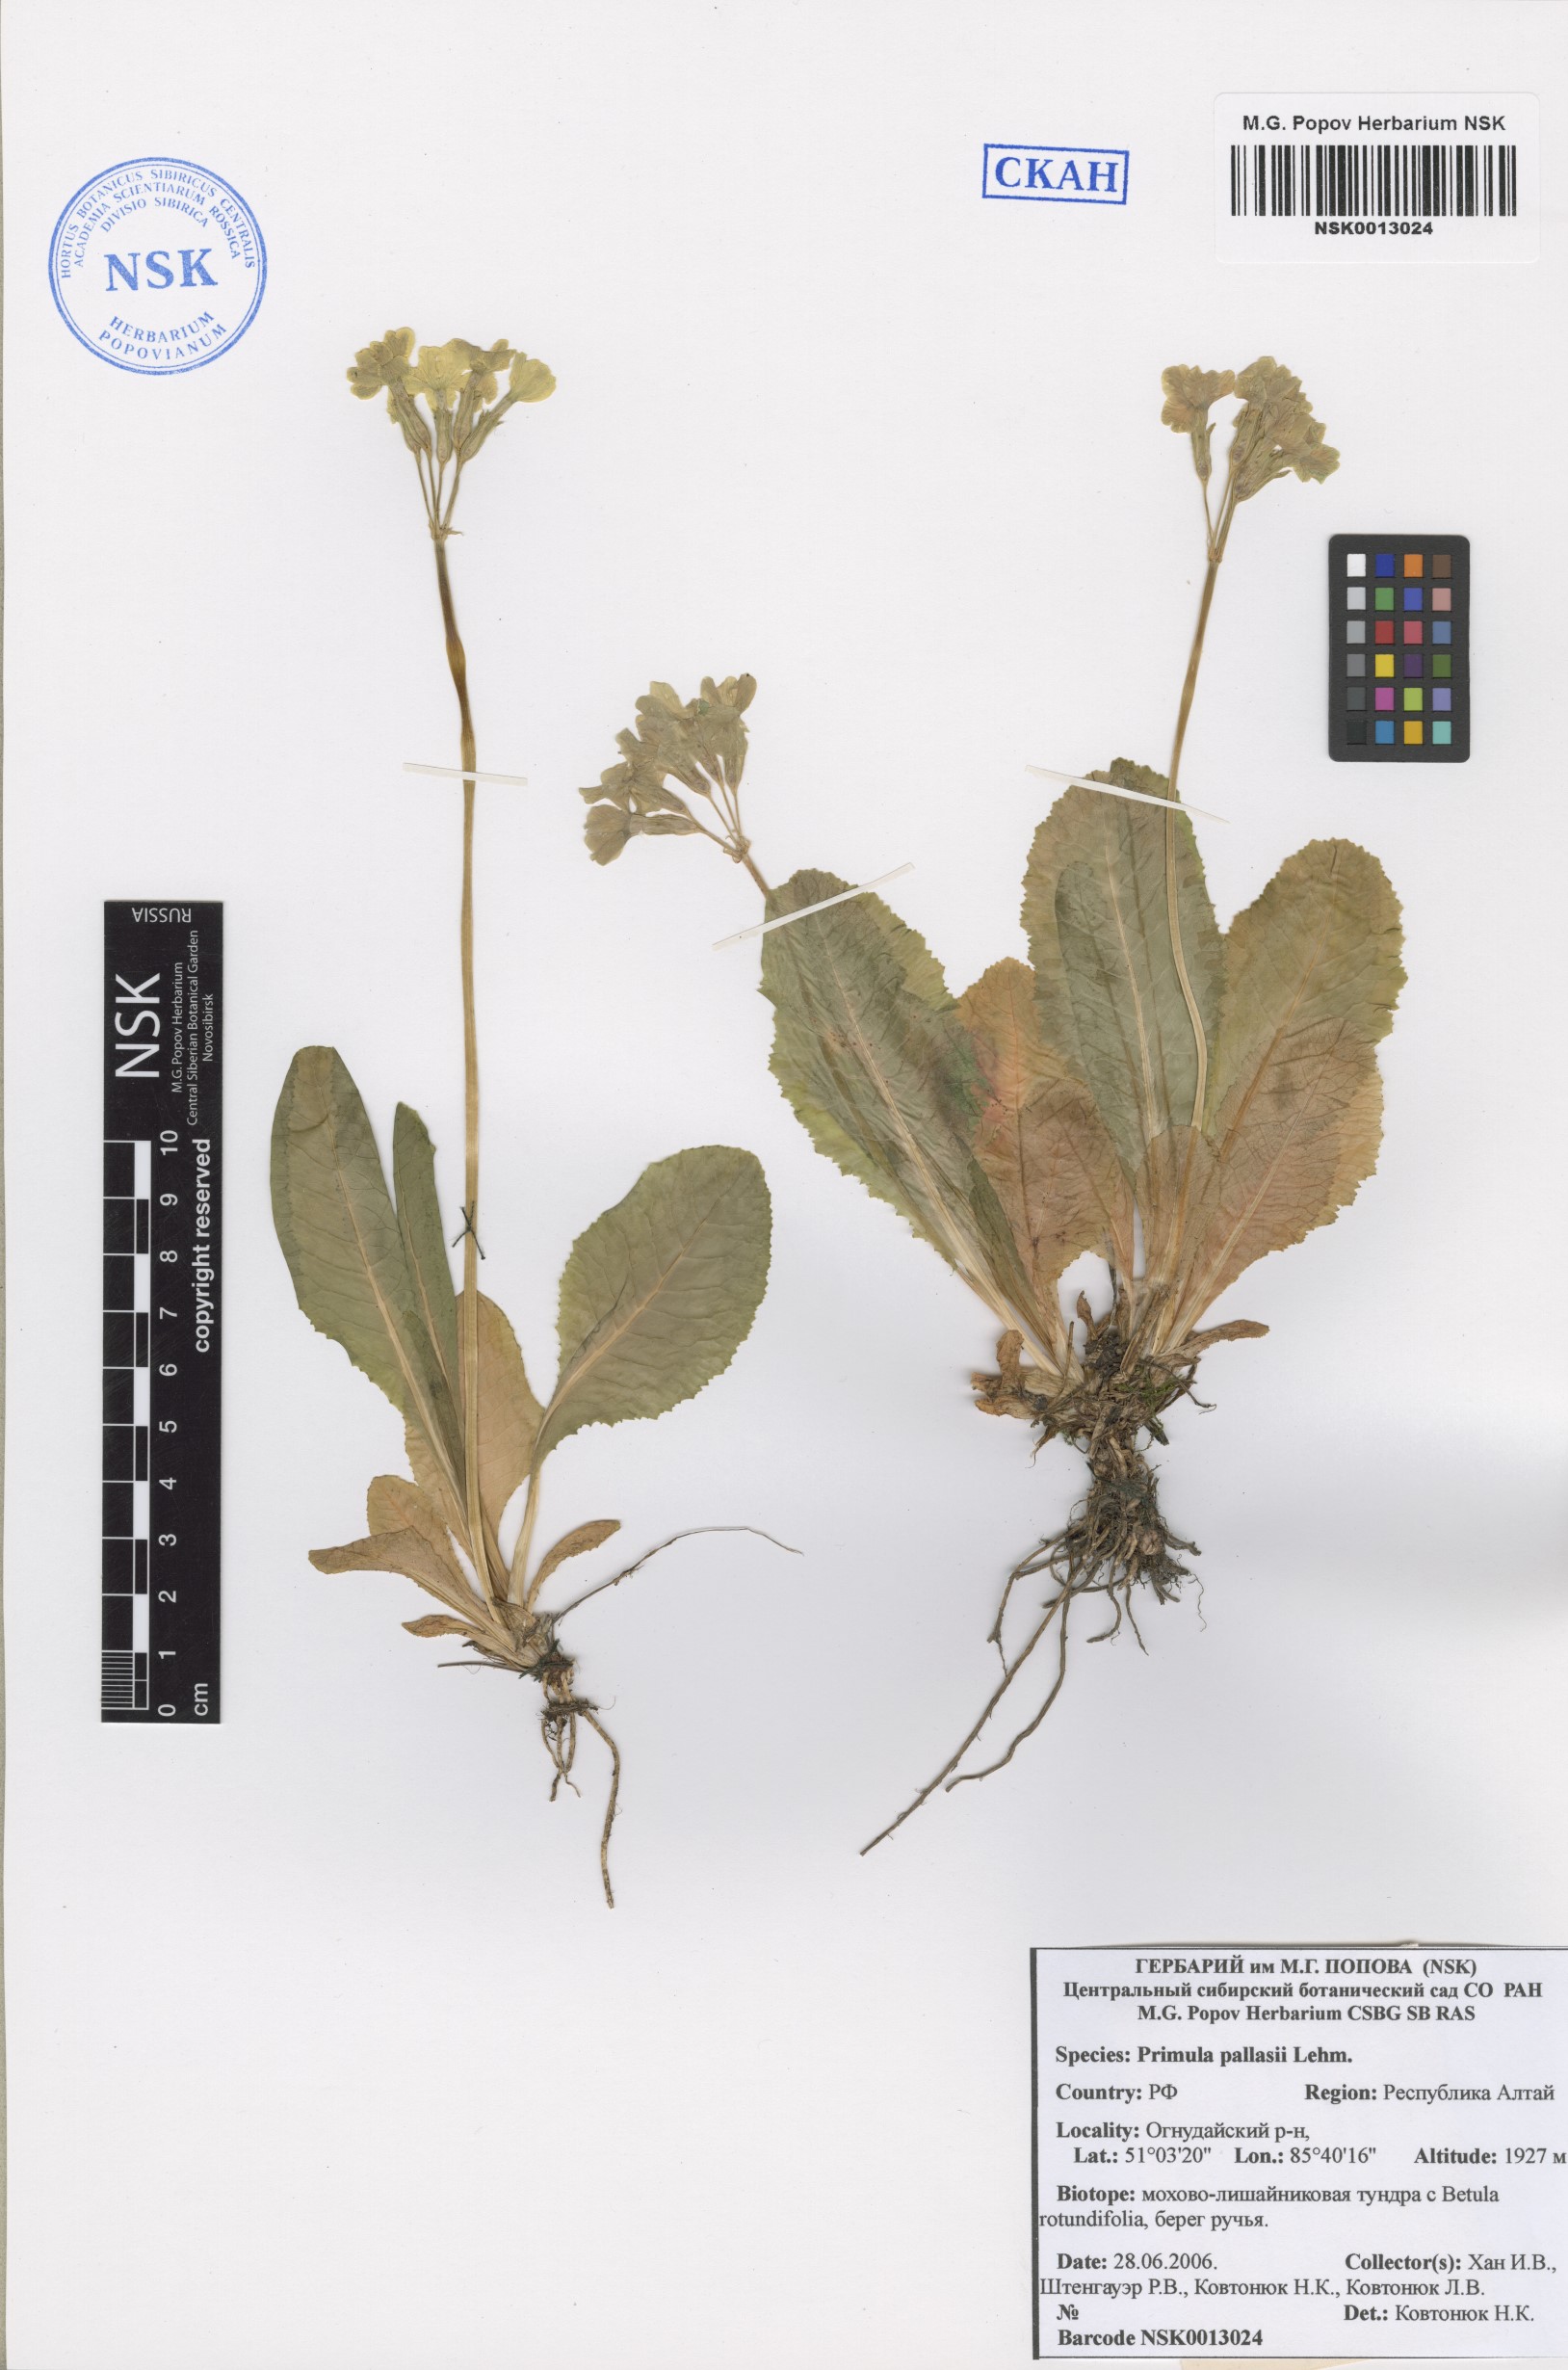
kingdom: Plantae
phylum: Tracheophyta
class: Magnoliopsida
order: Ericales
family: Primulaceae
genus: Primula
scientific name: Primula elatior
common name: Oxlip
